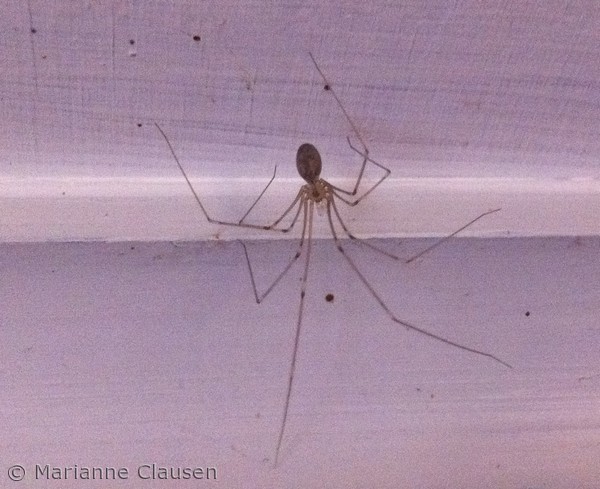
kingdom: Animalia
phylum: Arthropoda
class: Arachnida
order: Araneae
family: Pholcidae
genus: Pholcus
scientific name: Pholcus phalangioides
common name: Mejeredderkop
